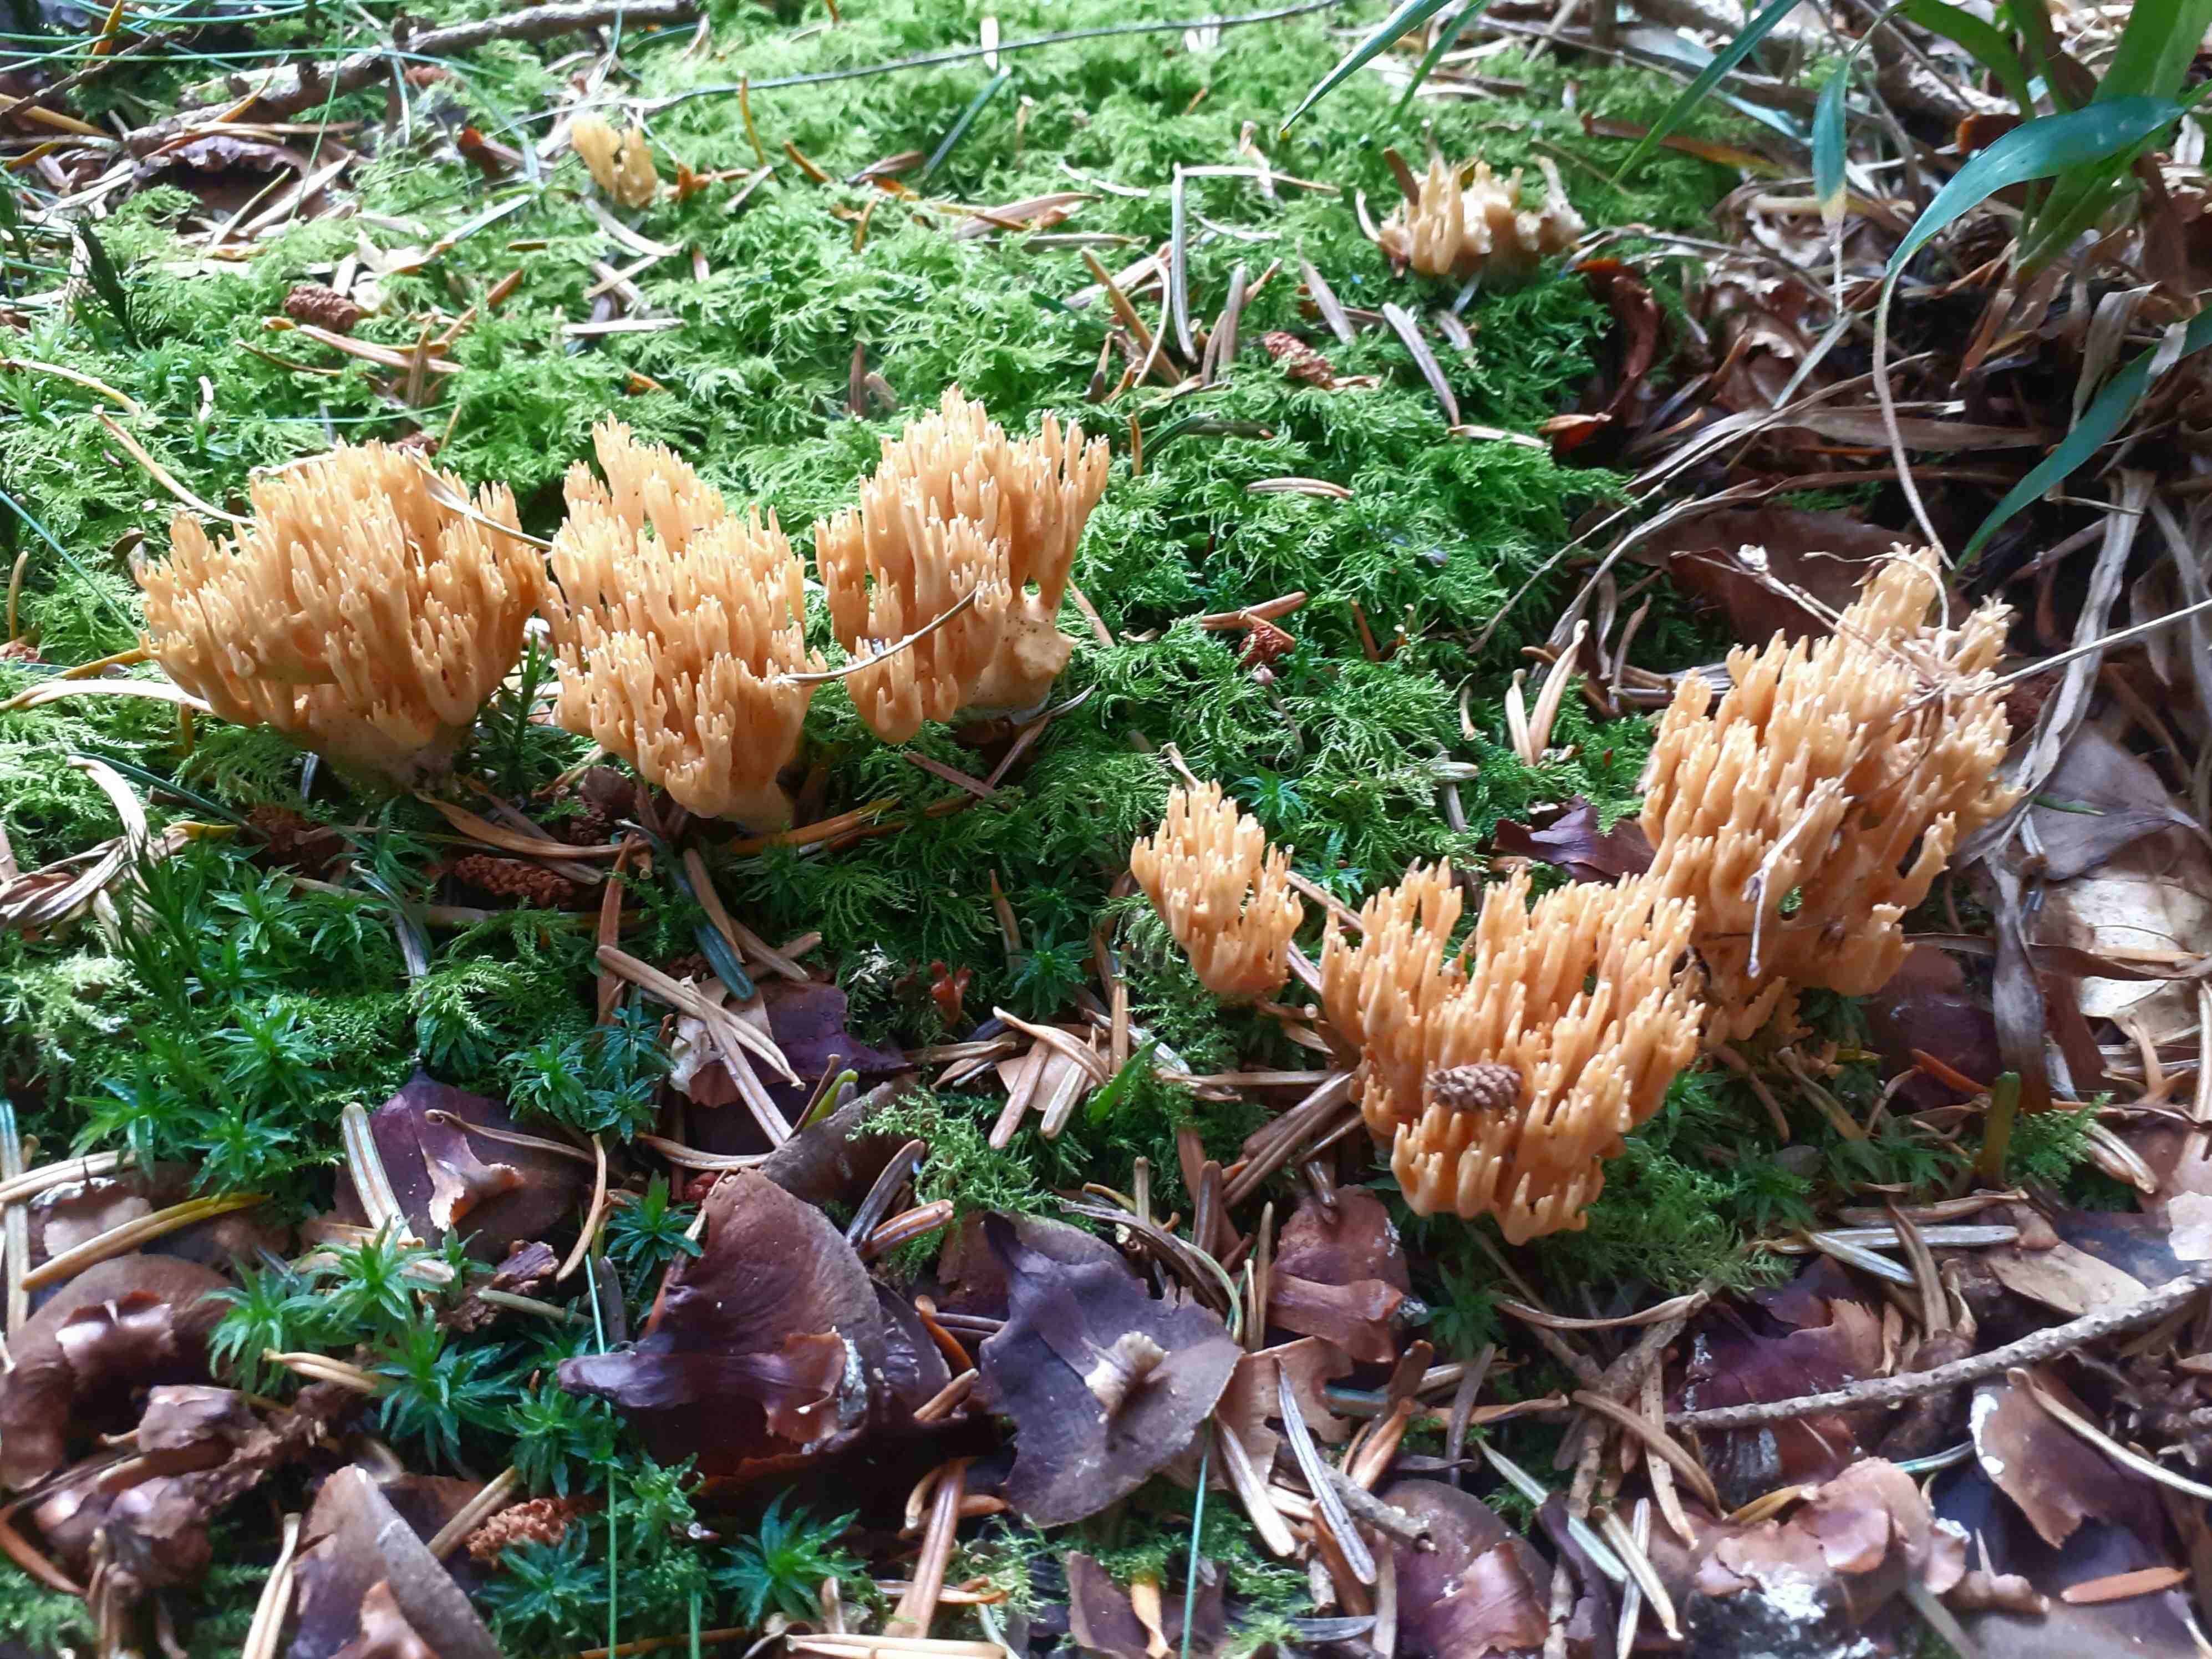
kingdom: Fungi
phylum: Basidiomycota
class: Agaricomycetes
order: Gomphales
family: Gomphaceae
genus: Phaeoclavulina
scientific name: Phaeoclavulina eumorpha
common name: gran-koralsvamp
